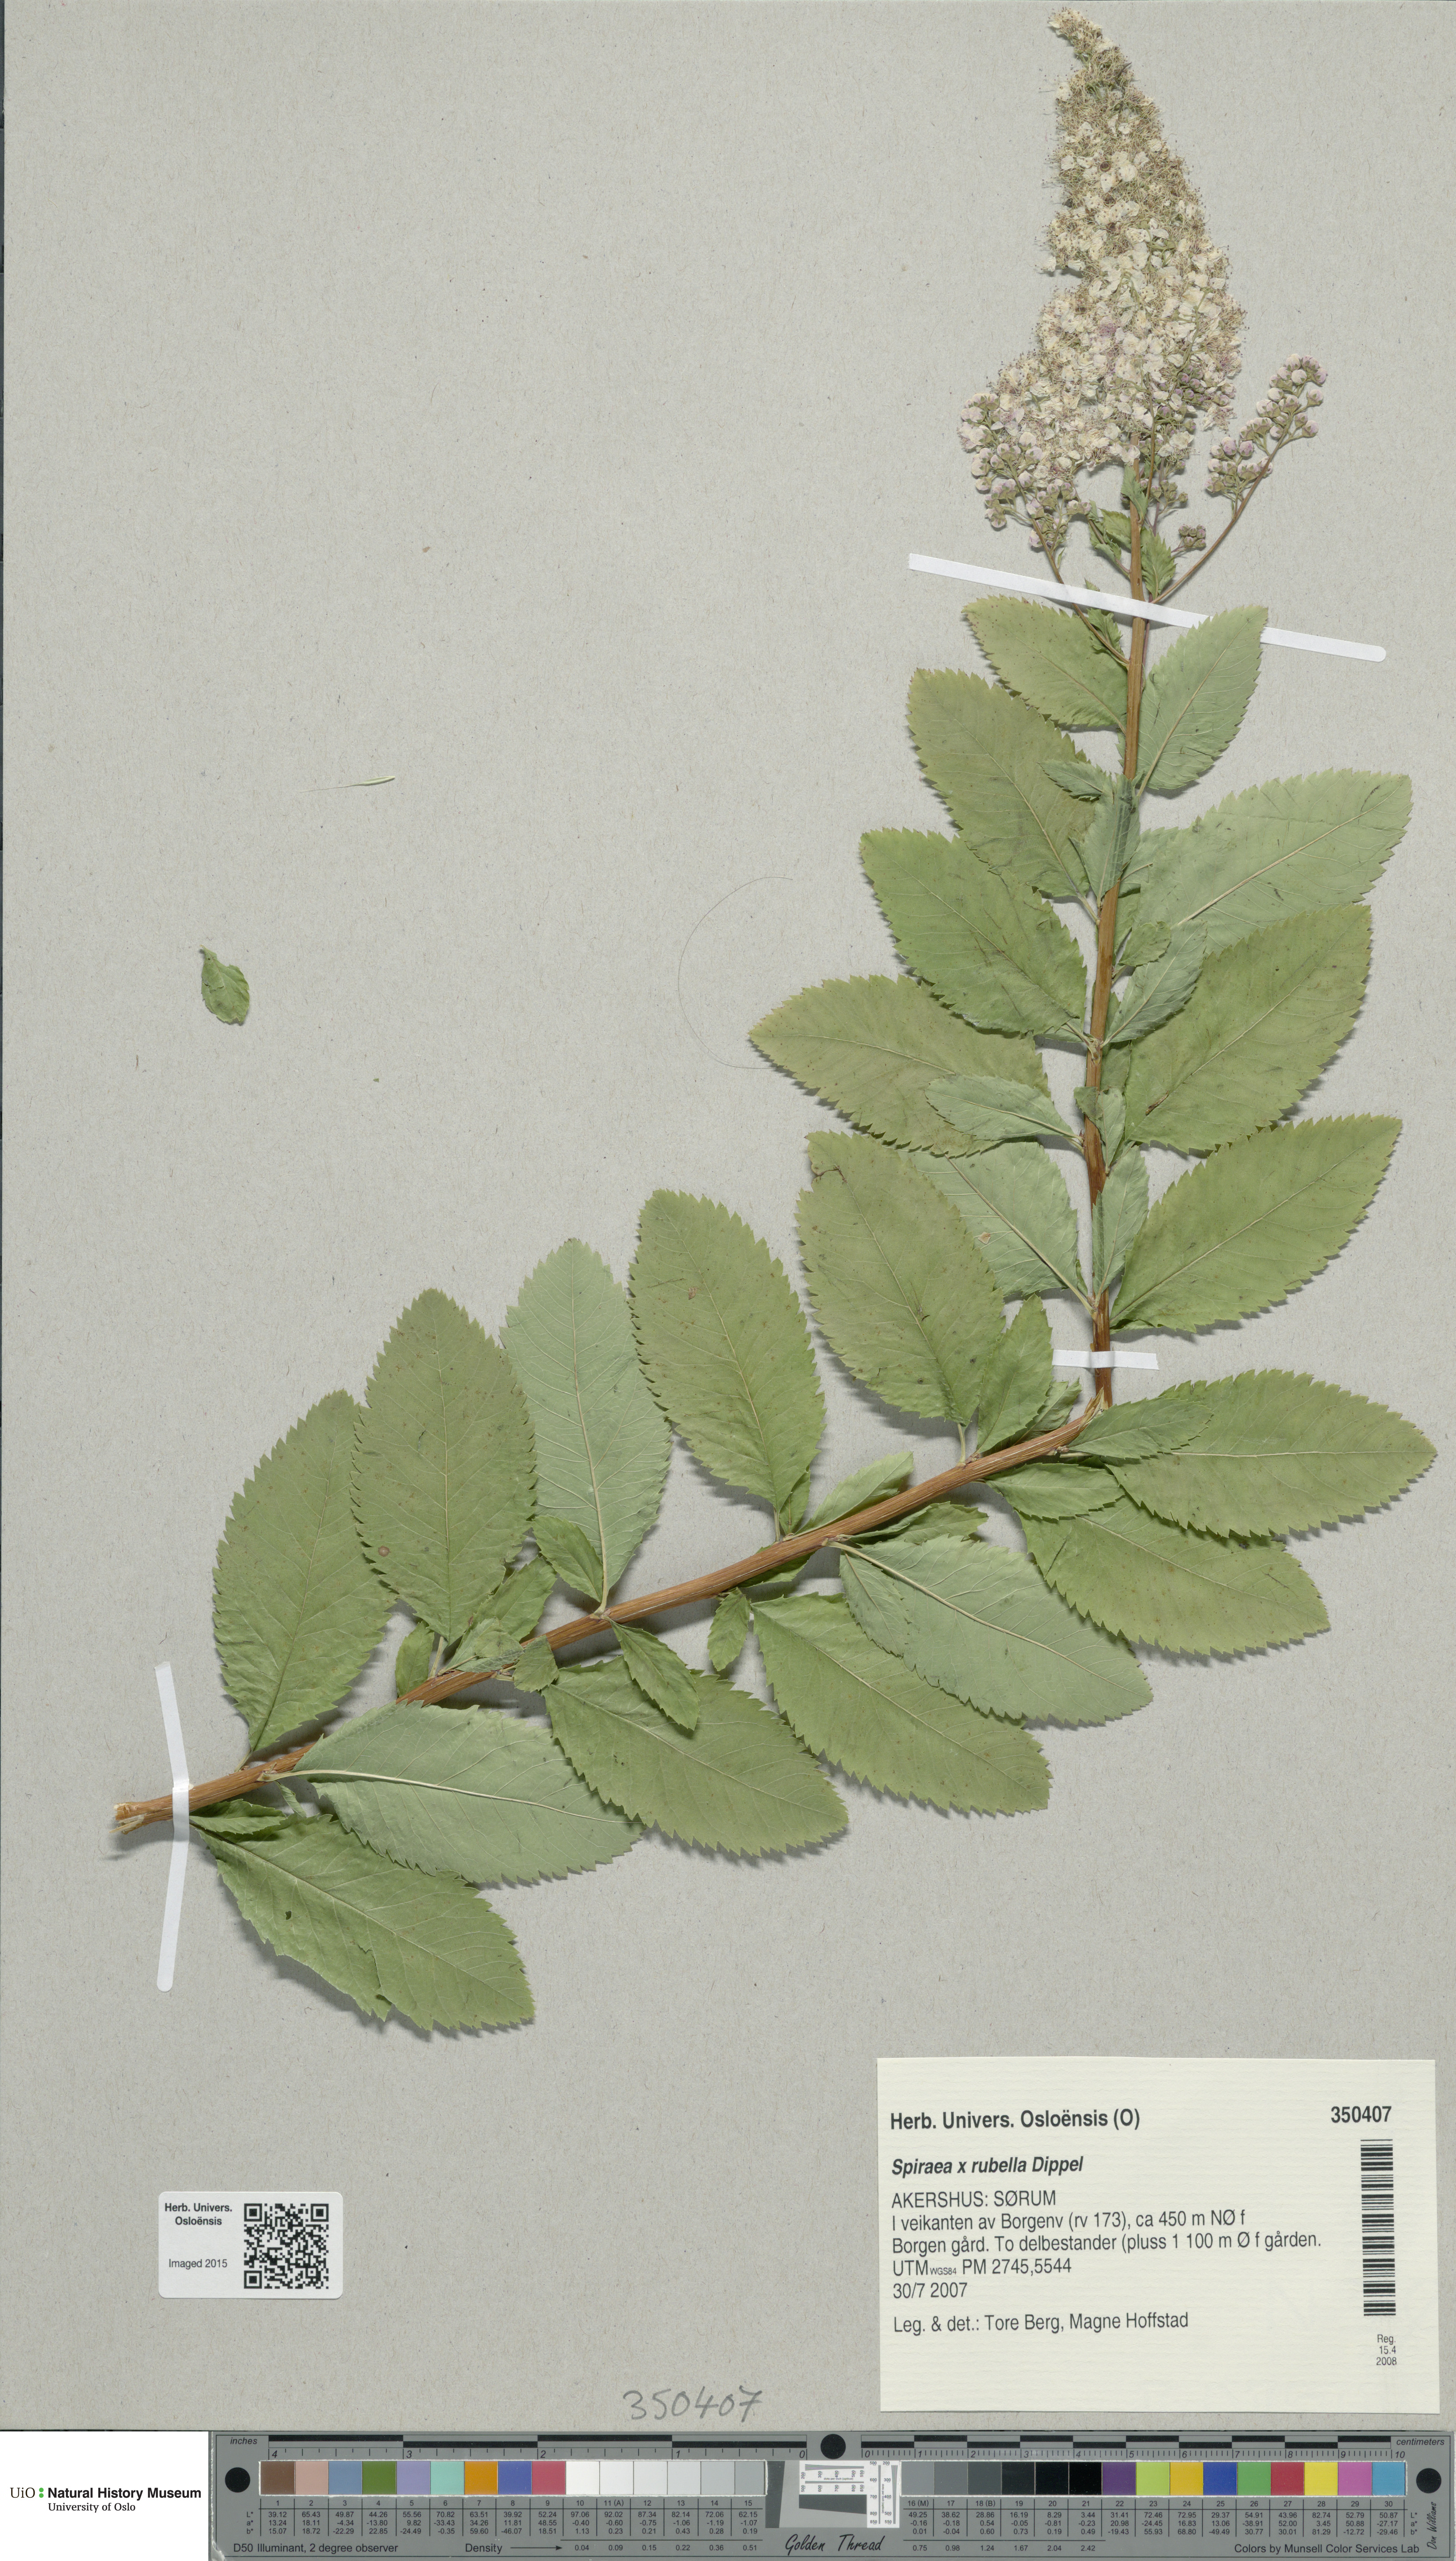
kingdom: Plantae
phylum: Tracheophyta
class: Magnoliopsida
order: Rosales
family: Rosaceae
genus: Spiraea
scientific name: Spiraea rosalba
